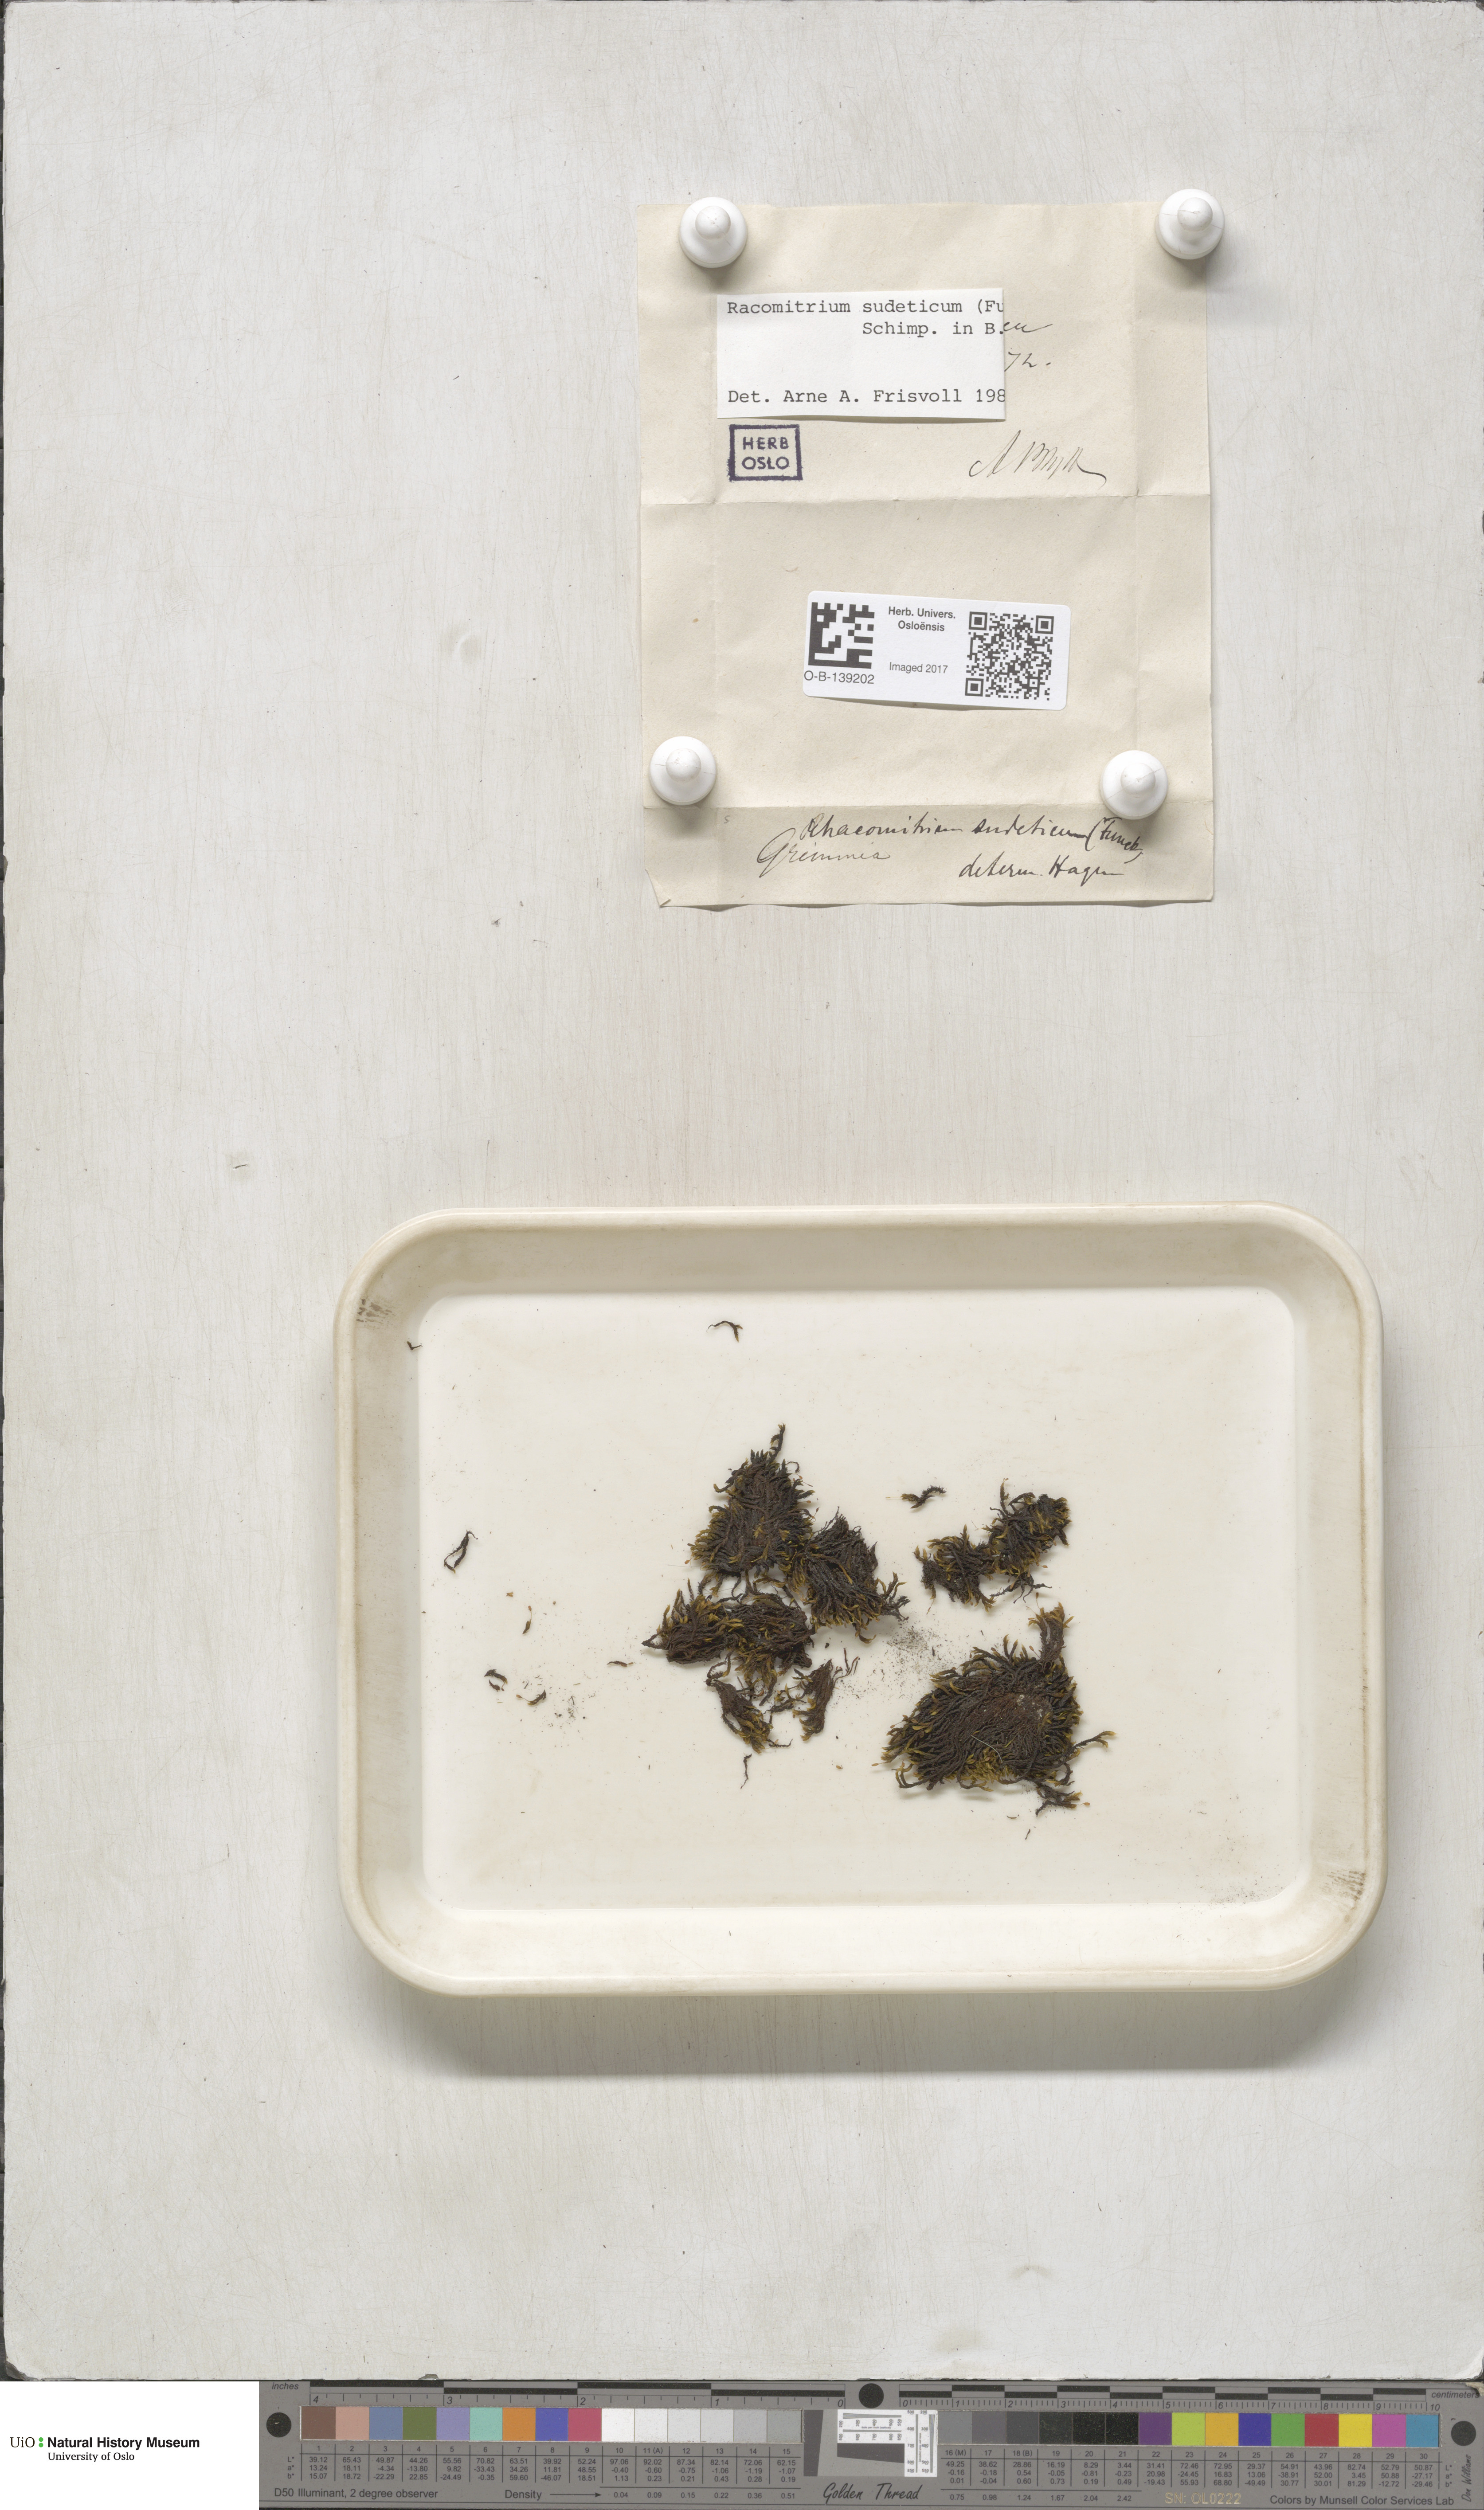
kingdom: Plantae
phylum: Bryophyta
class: Bryopsida
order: Grimmiales
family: Grimmiaceae
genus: Bucklandiella
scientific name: Bucklandiella sudetica
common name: Slender fringe-moss
